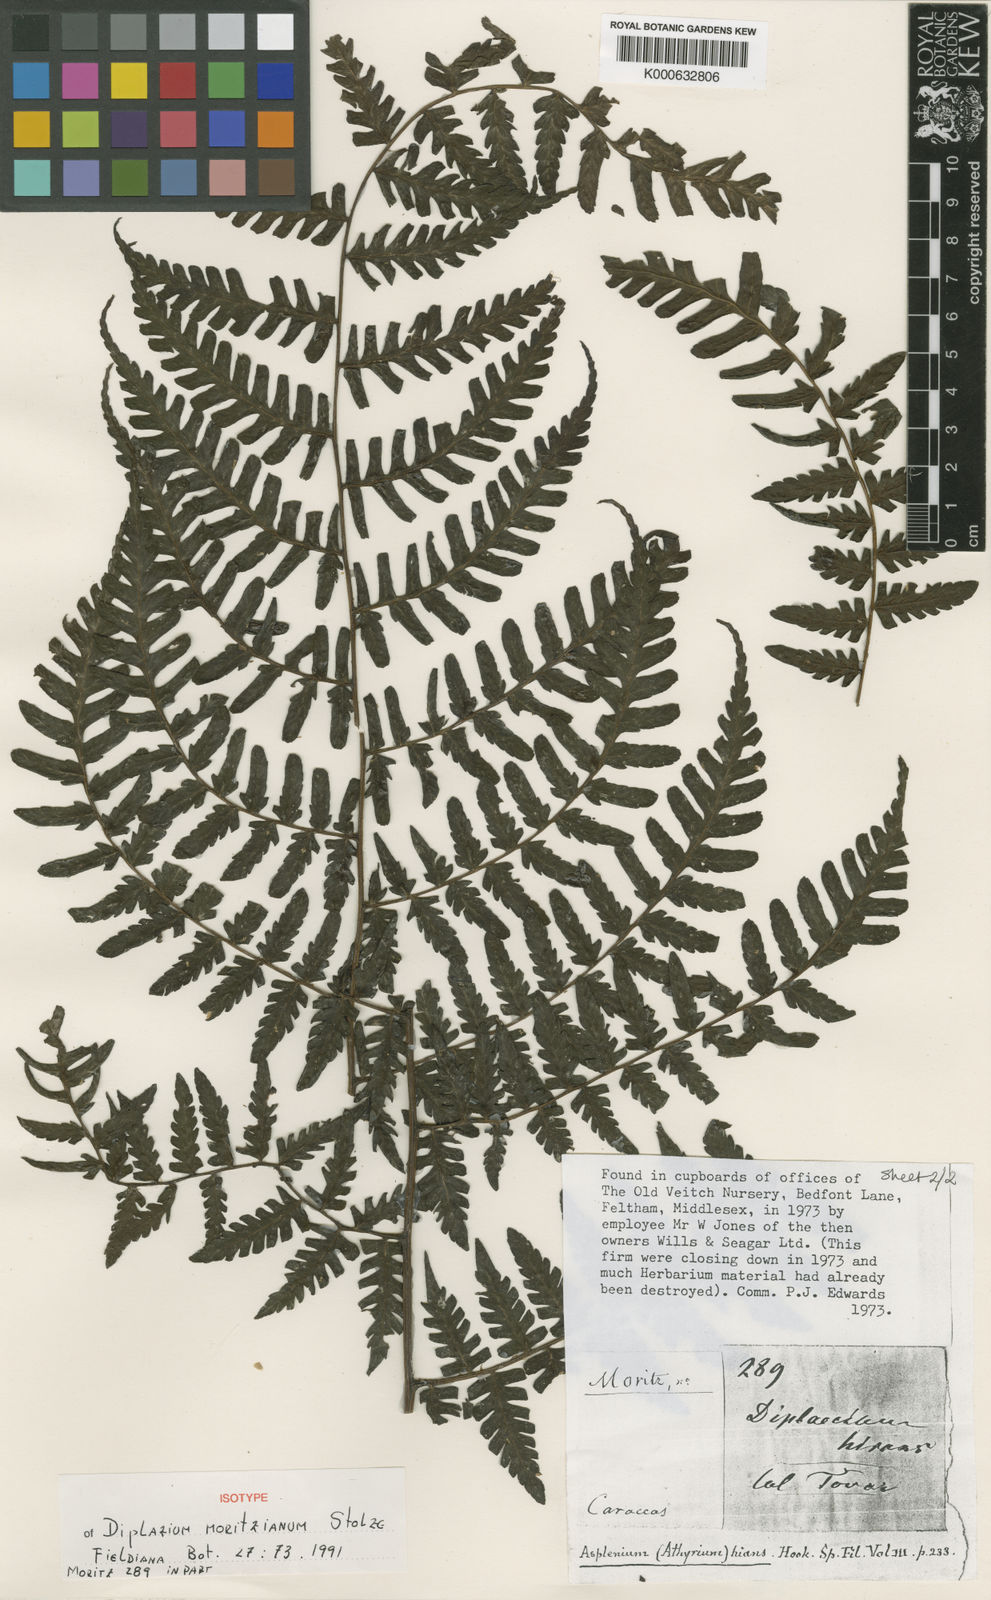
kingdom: Plantae
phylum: Tracheophyta
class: Polypodiopsida
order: Polypodiales
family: Athyriaceae
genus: Diplazium
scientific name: Diplazium moritzianum
